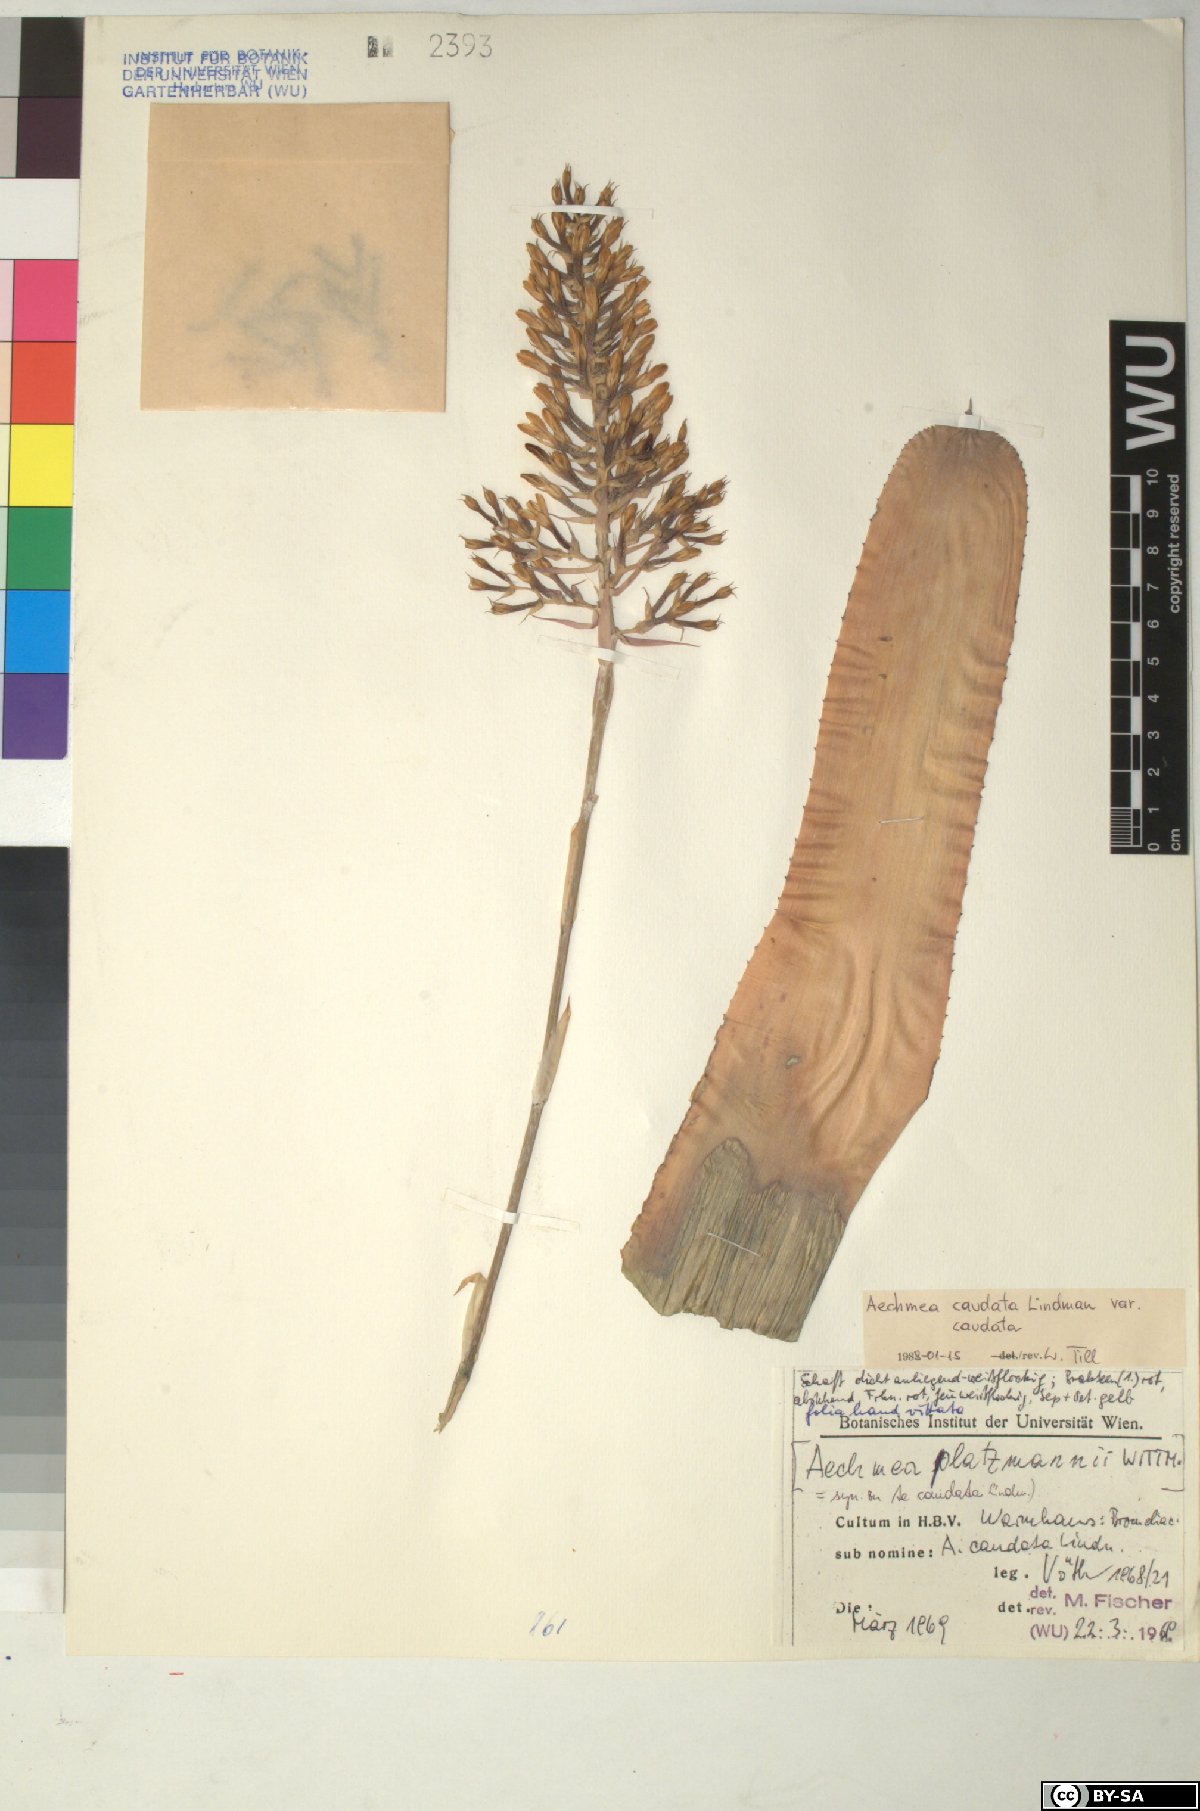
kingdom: Plantae
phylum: Tracheophyta
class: Liliopsida
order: Poales
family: Bromeliaceae
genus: Aechmea
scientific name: Aechmea caudata
